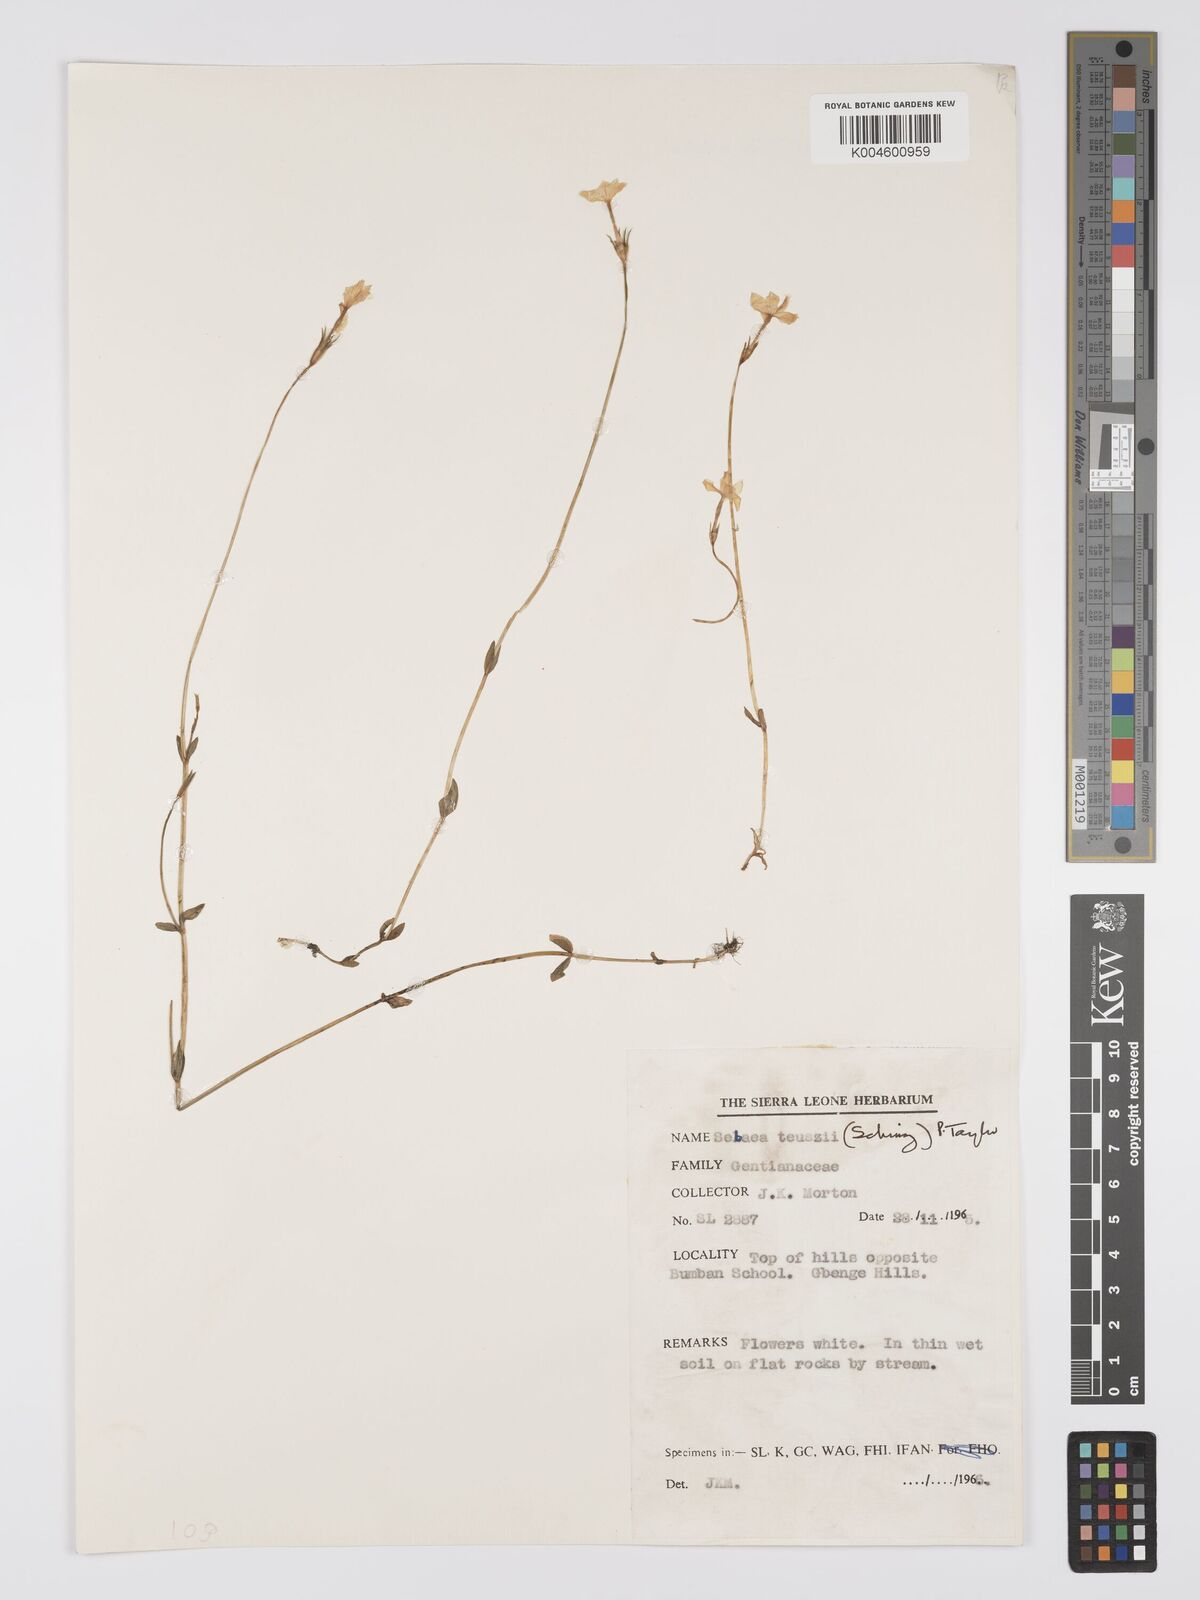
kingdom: Plantae
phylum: Tracheophyta
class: Magnoliopsida
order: Gentianales
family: Gentianaceae
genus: Exochaenium
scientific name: Exochaenium teuszii
